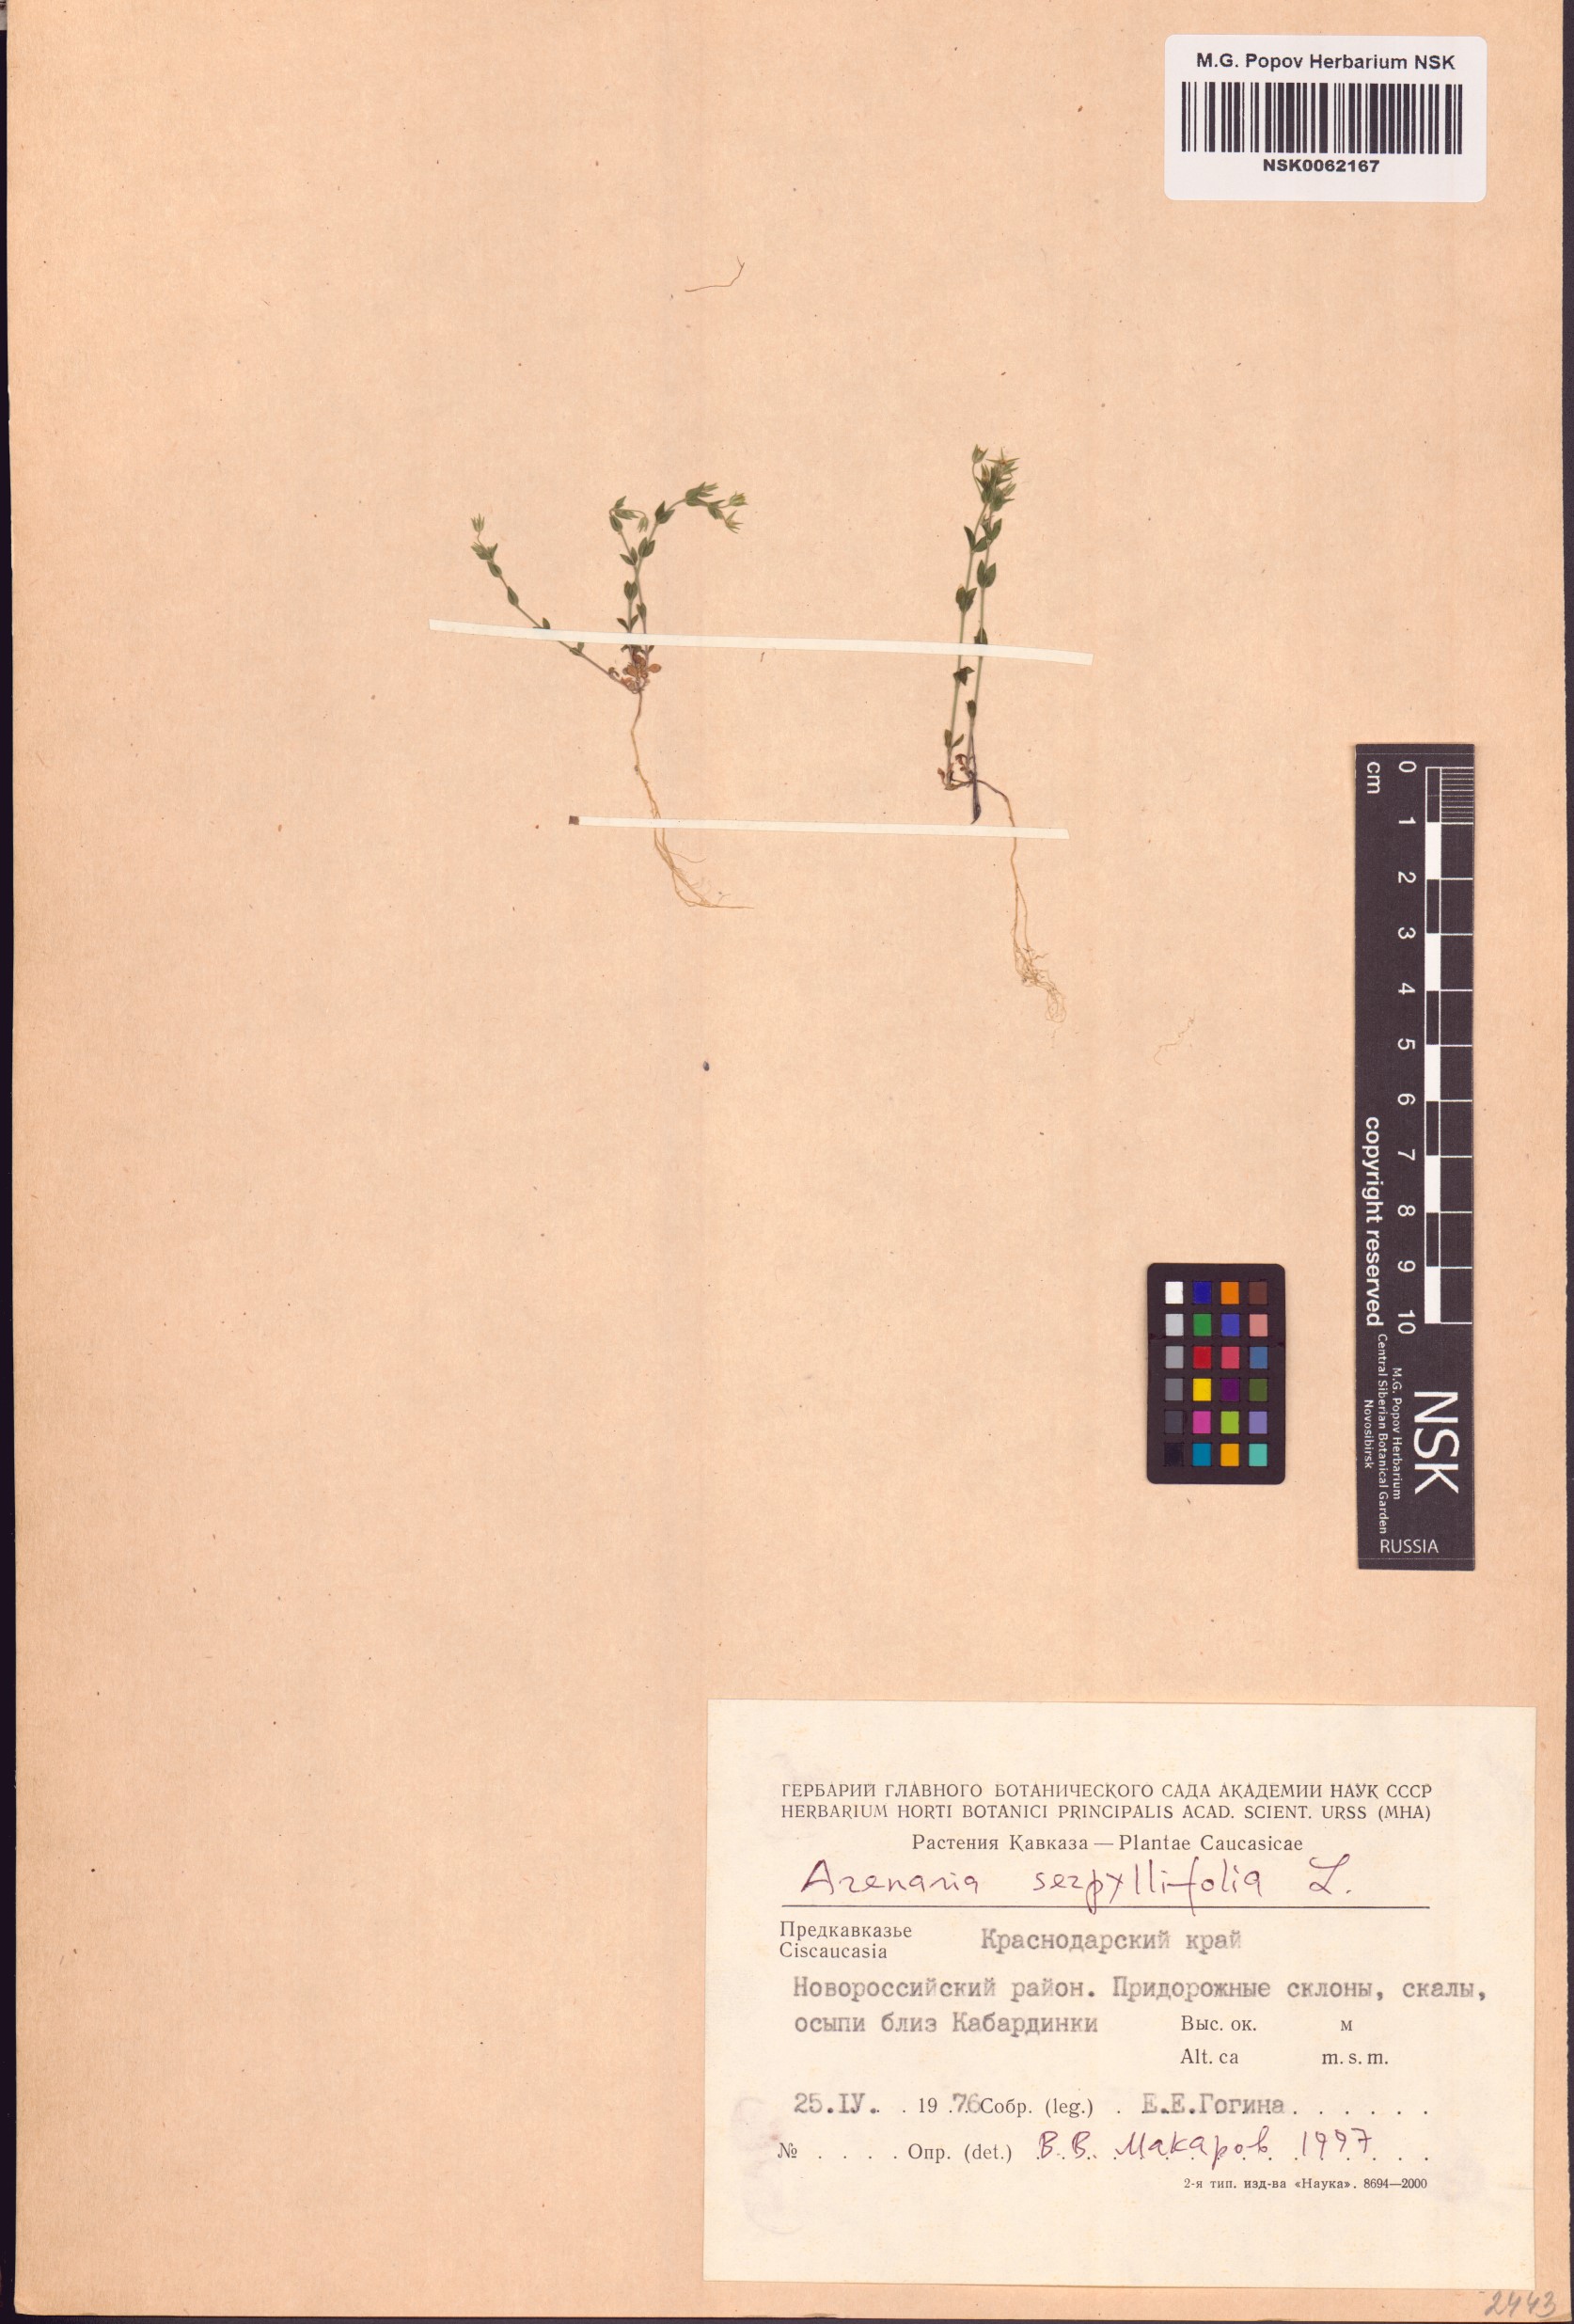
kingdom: Plantae
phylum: Tracheophyta
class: Magnoliopsida
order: Caryophyllales
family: Caryophyllaceae
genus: Arenaria
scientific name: Arenaria serpyllifolia
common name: Thyme-leaved sandwort
